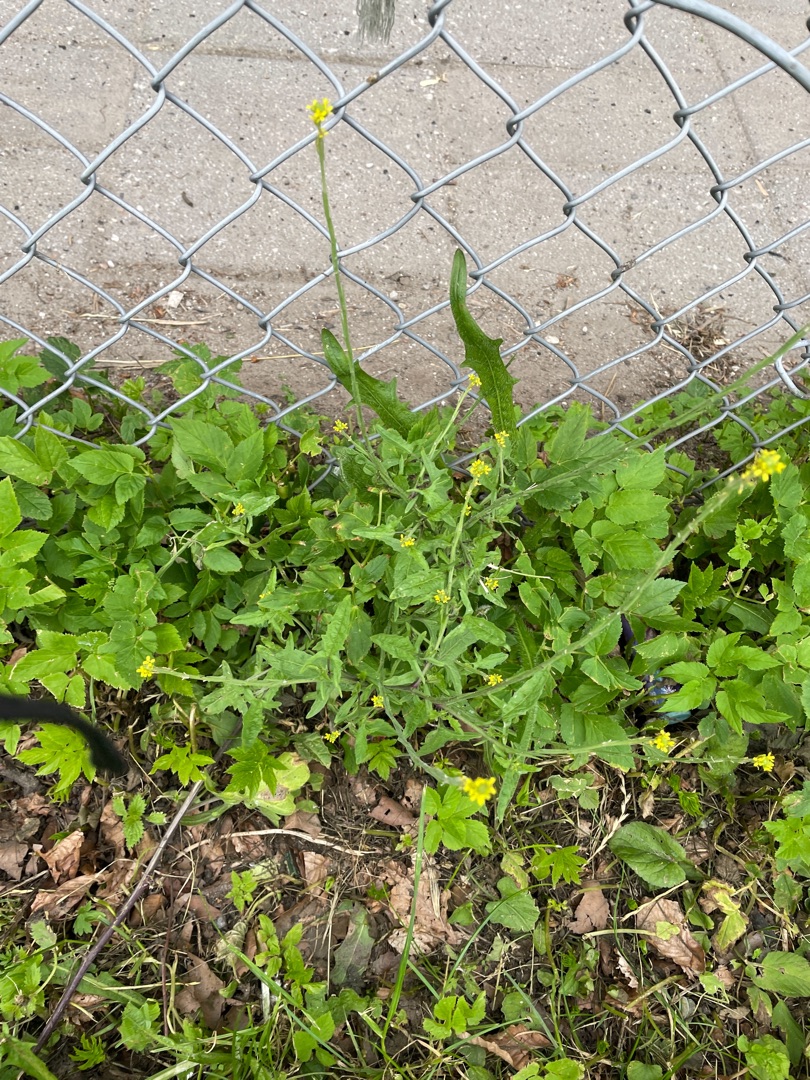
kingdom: Plantae
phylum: Tracheophyta
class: Magnoliopsida
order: Brassicales
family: Brassicaceae
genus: Sisymbrium
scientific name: Sisymbrium officinale
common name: Rank vejsennep
